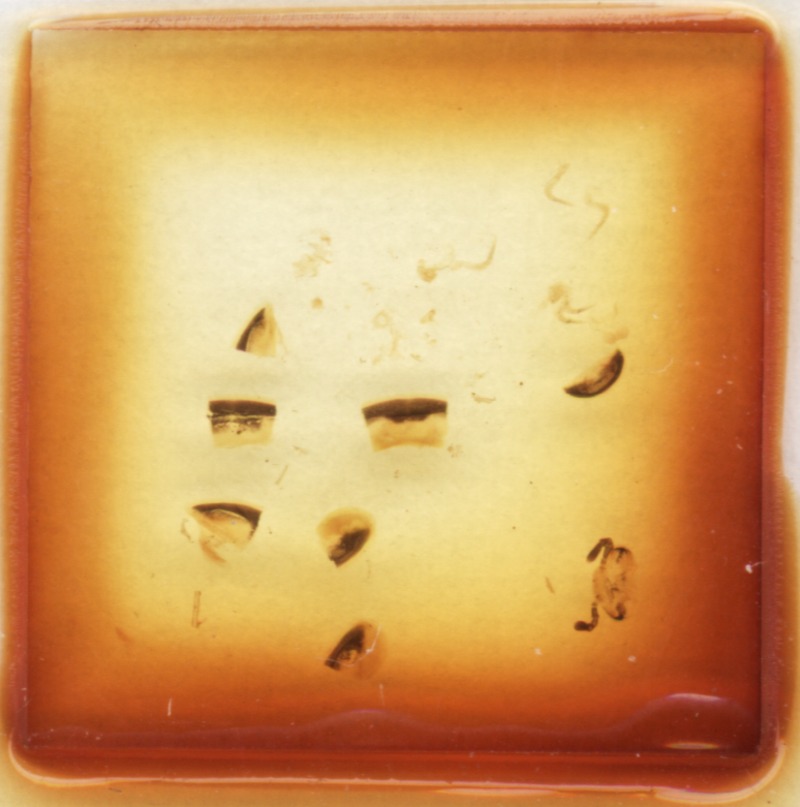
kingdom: Animalia
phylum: Arthropoda
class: Diplopoda
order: Glomerida
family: Glomeridae
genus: Hyleoglomeris
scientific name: Hyleoglomeris
